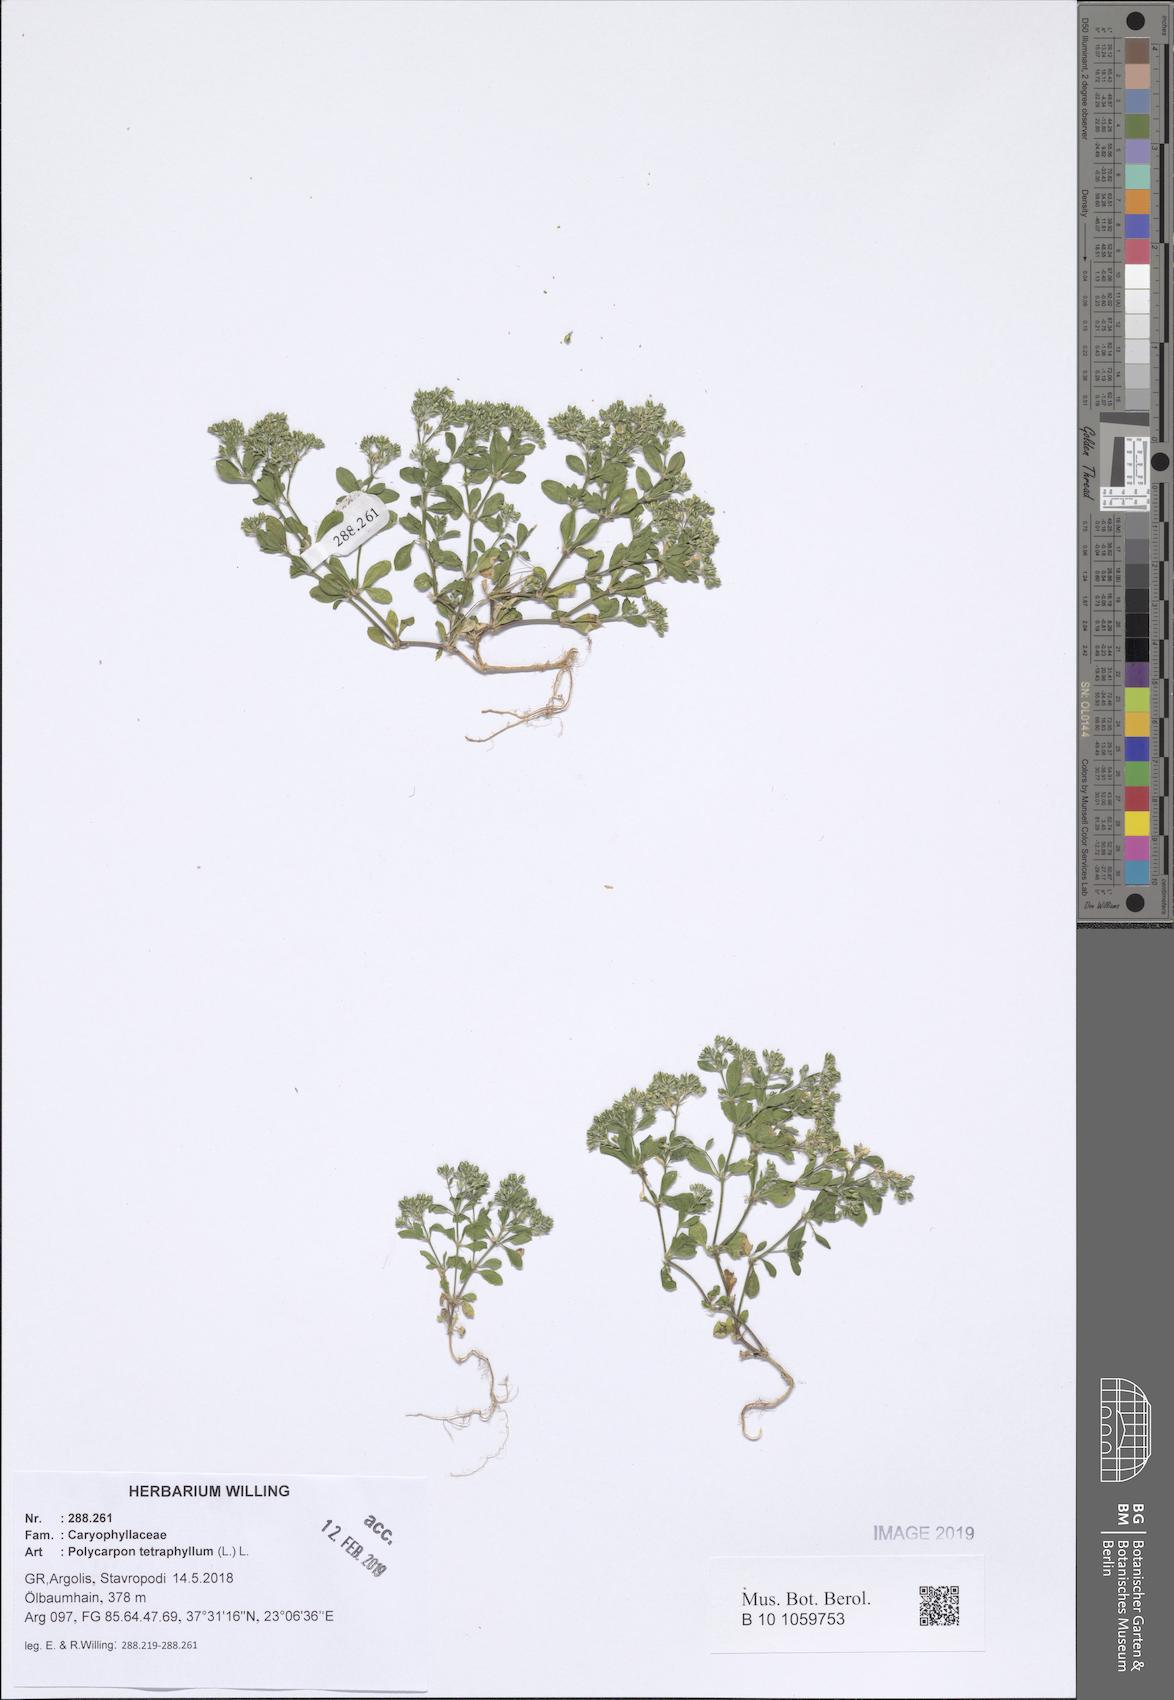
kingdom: Plantae
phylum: Tracheophyta
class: Magnoliopsida
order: Caryophyllales
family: Caryophyllaceae
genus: Polycarpon
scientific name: Polycarpon tetraphyllum
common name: Four-leaved all-seed
